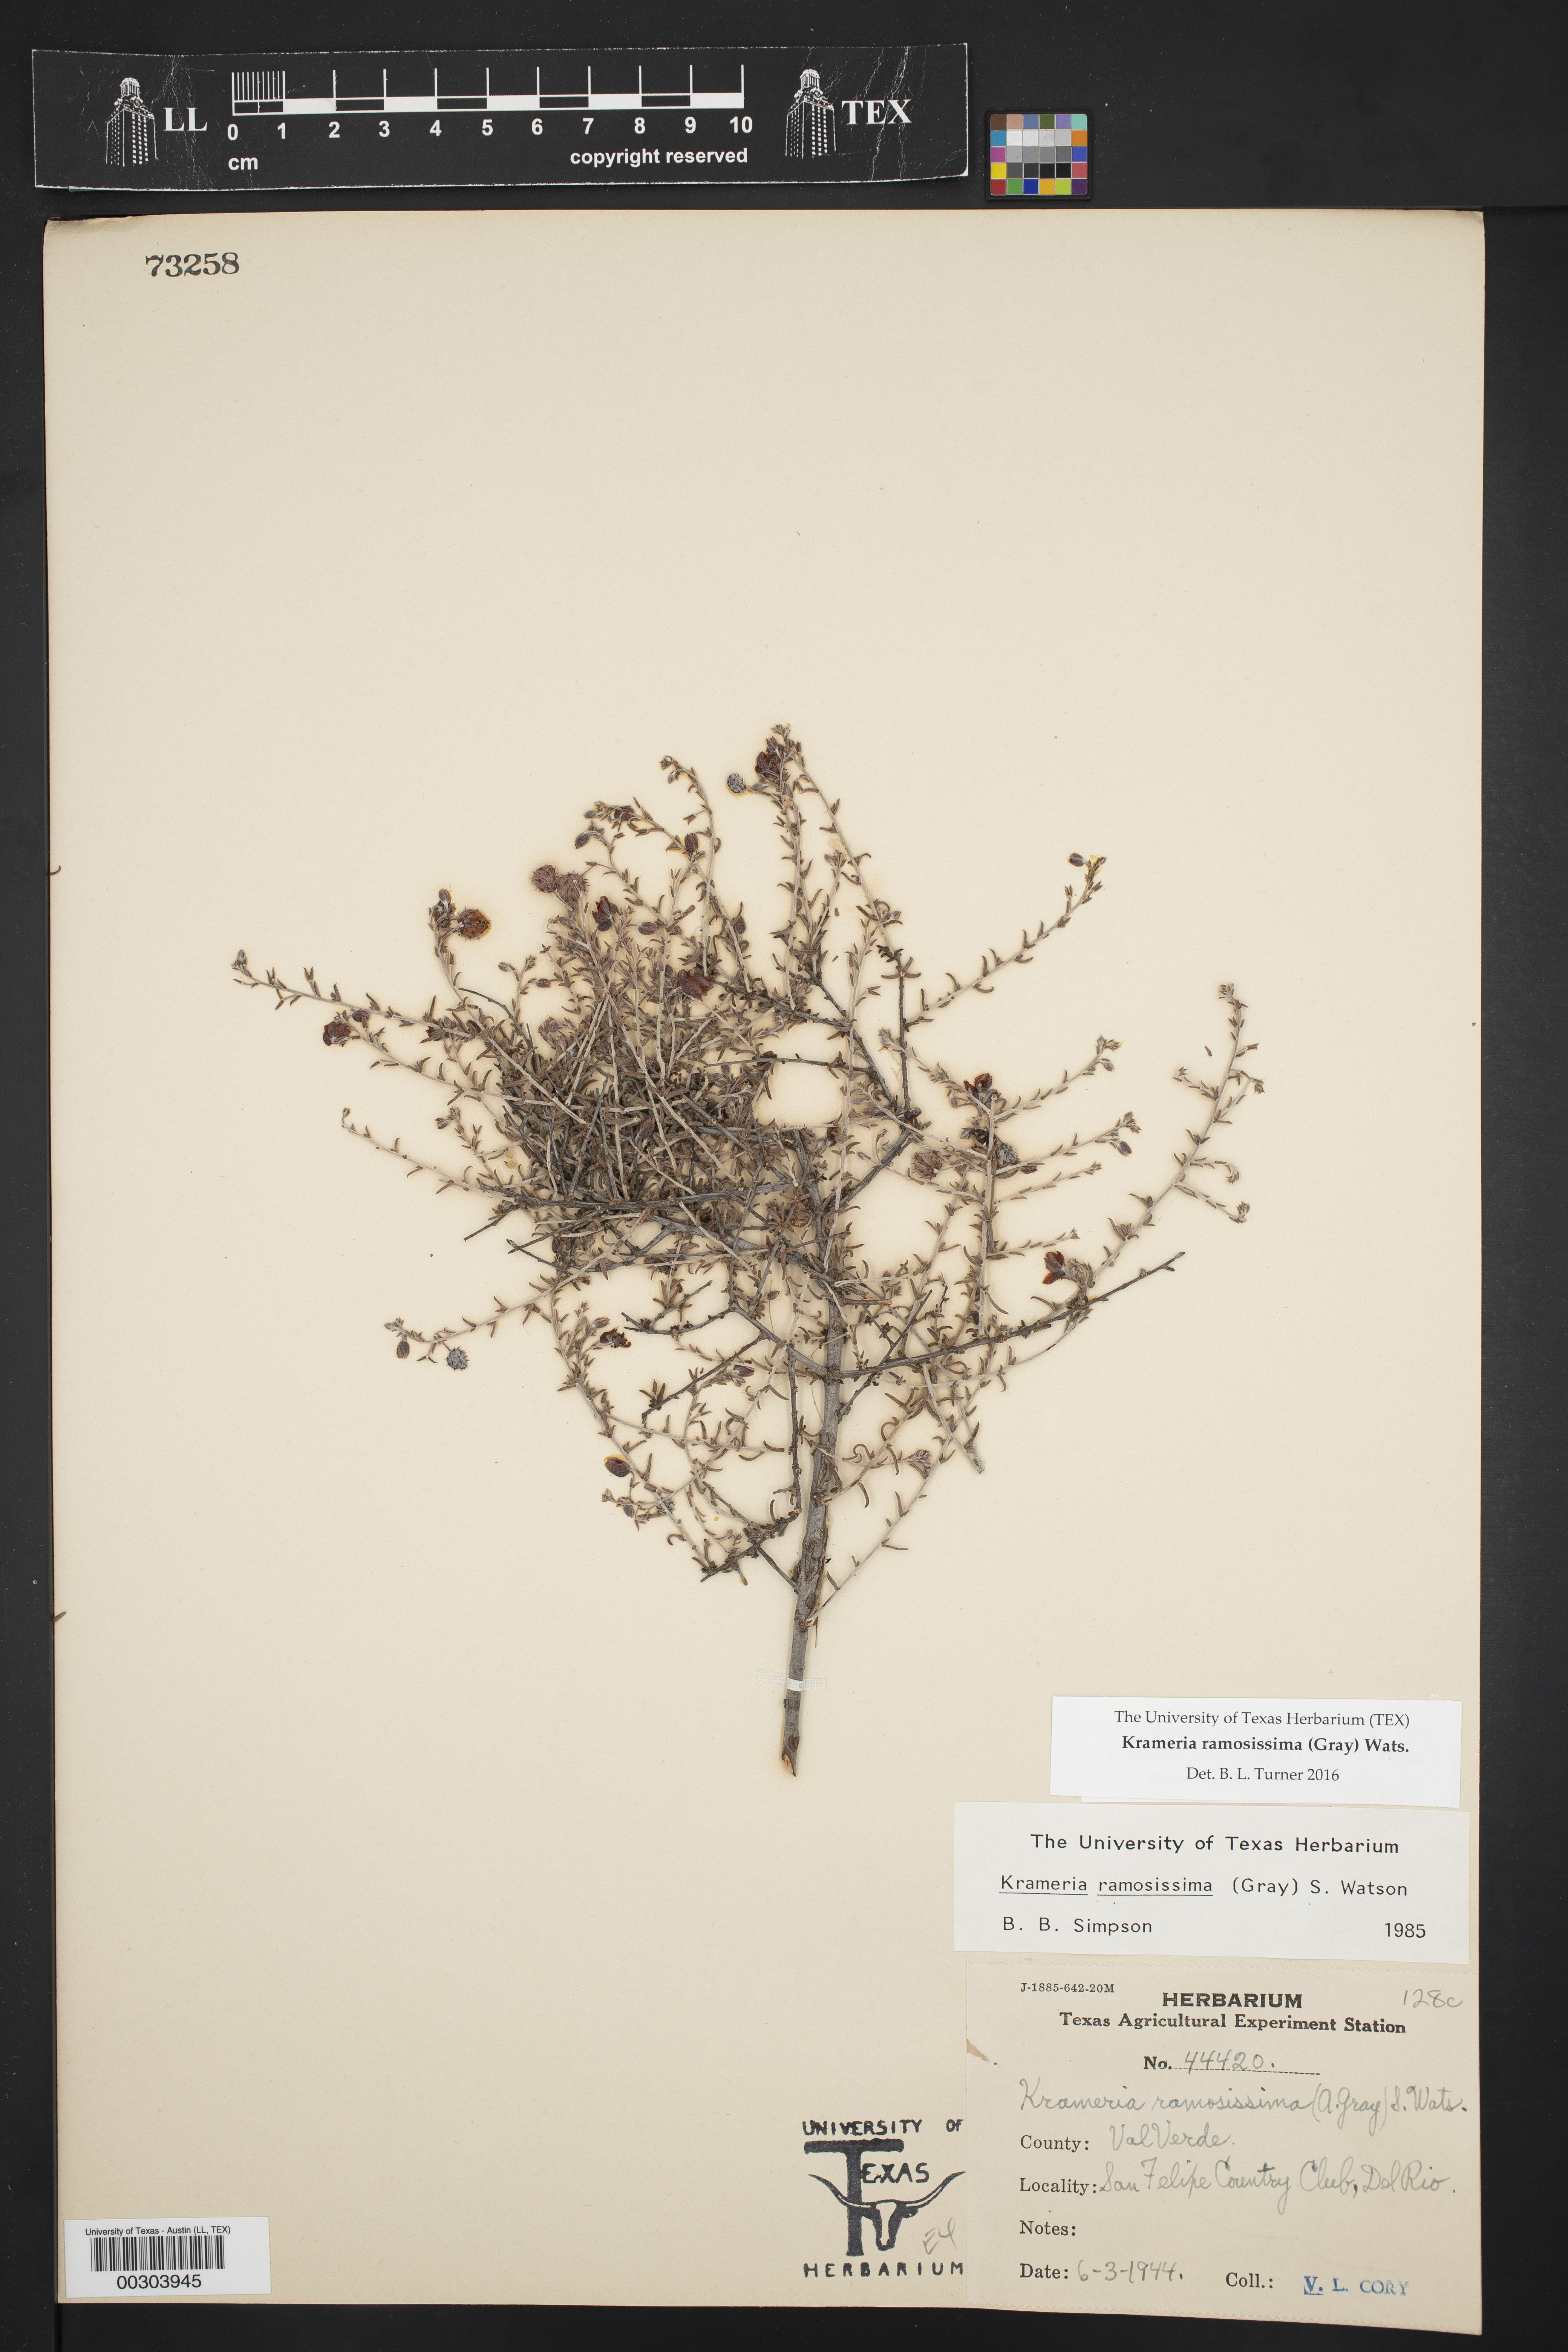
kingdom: Plantae
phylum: Tracheophyta
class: Magnoliopsida
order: Zygophyllales
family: Krameriaceae
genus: Krameria
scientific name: Krameria ramosissima
